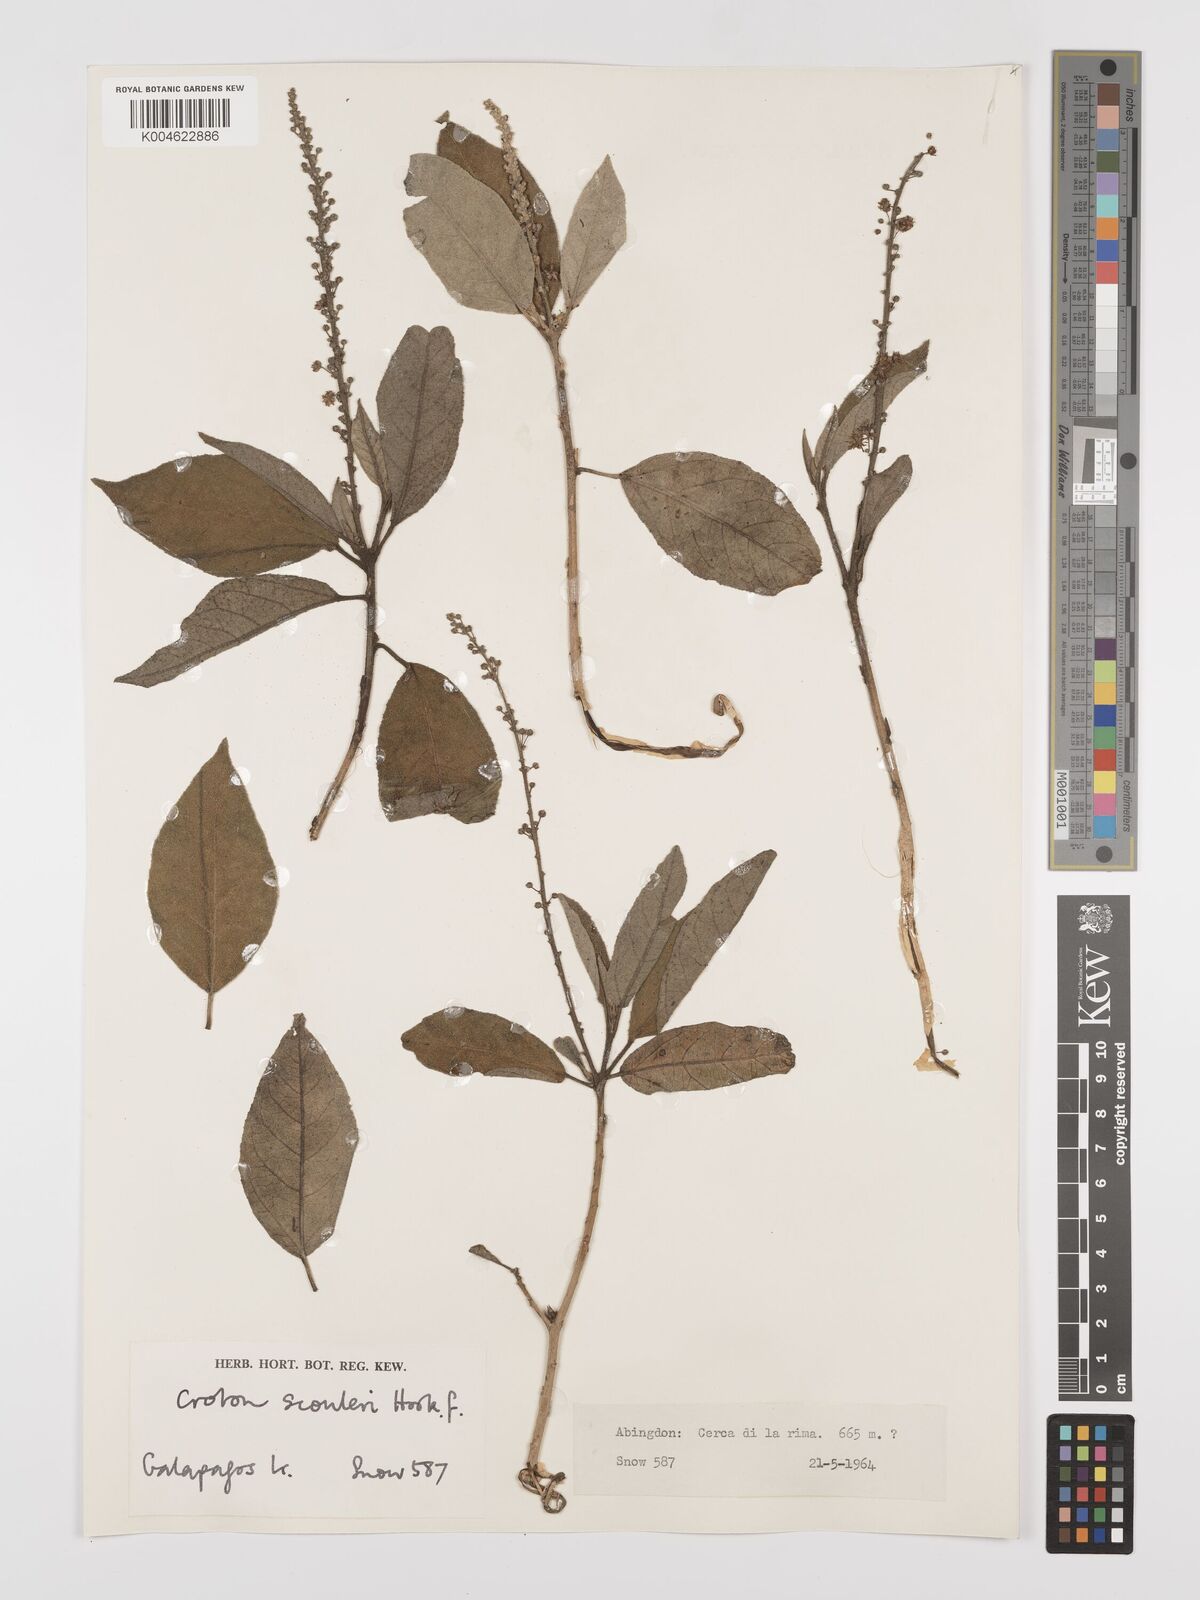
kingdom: Plantae
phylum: Tracheophyta
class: Magnoliopsida
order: Malpighiales
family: Euphorbiaceae
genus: Croton
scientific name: Croton scouleri
